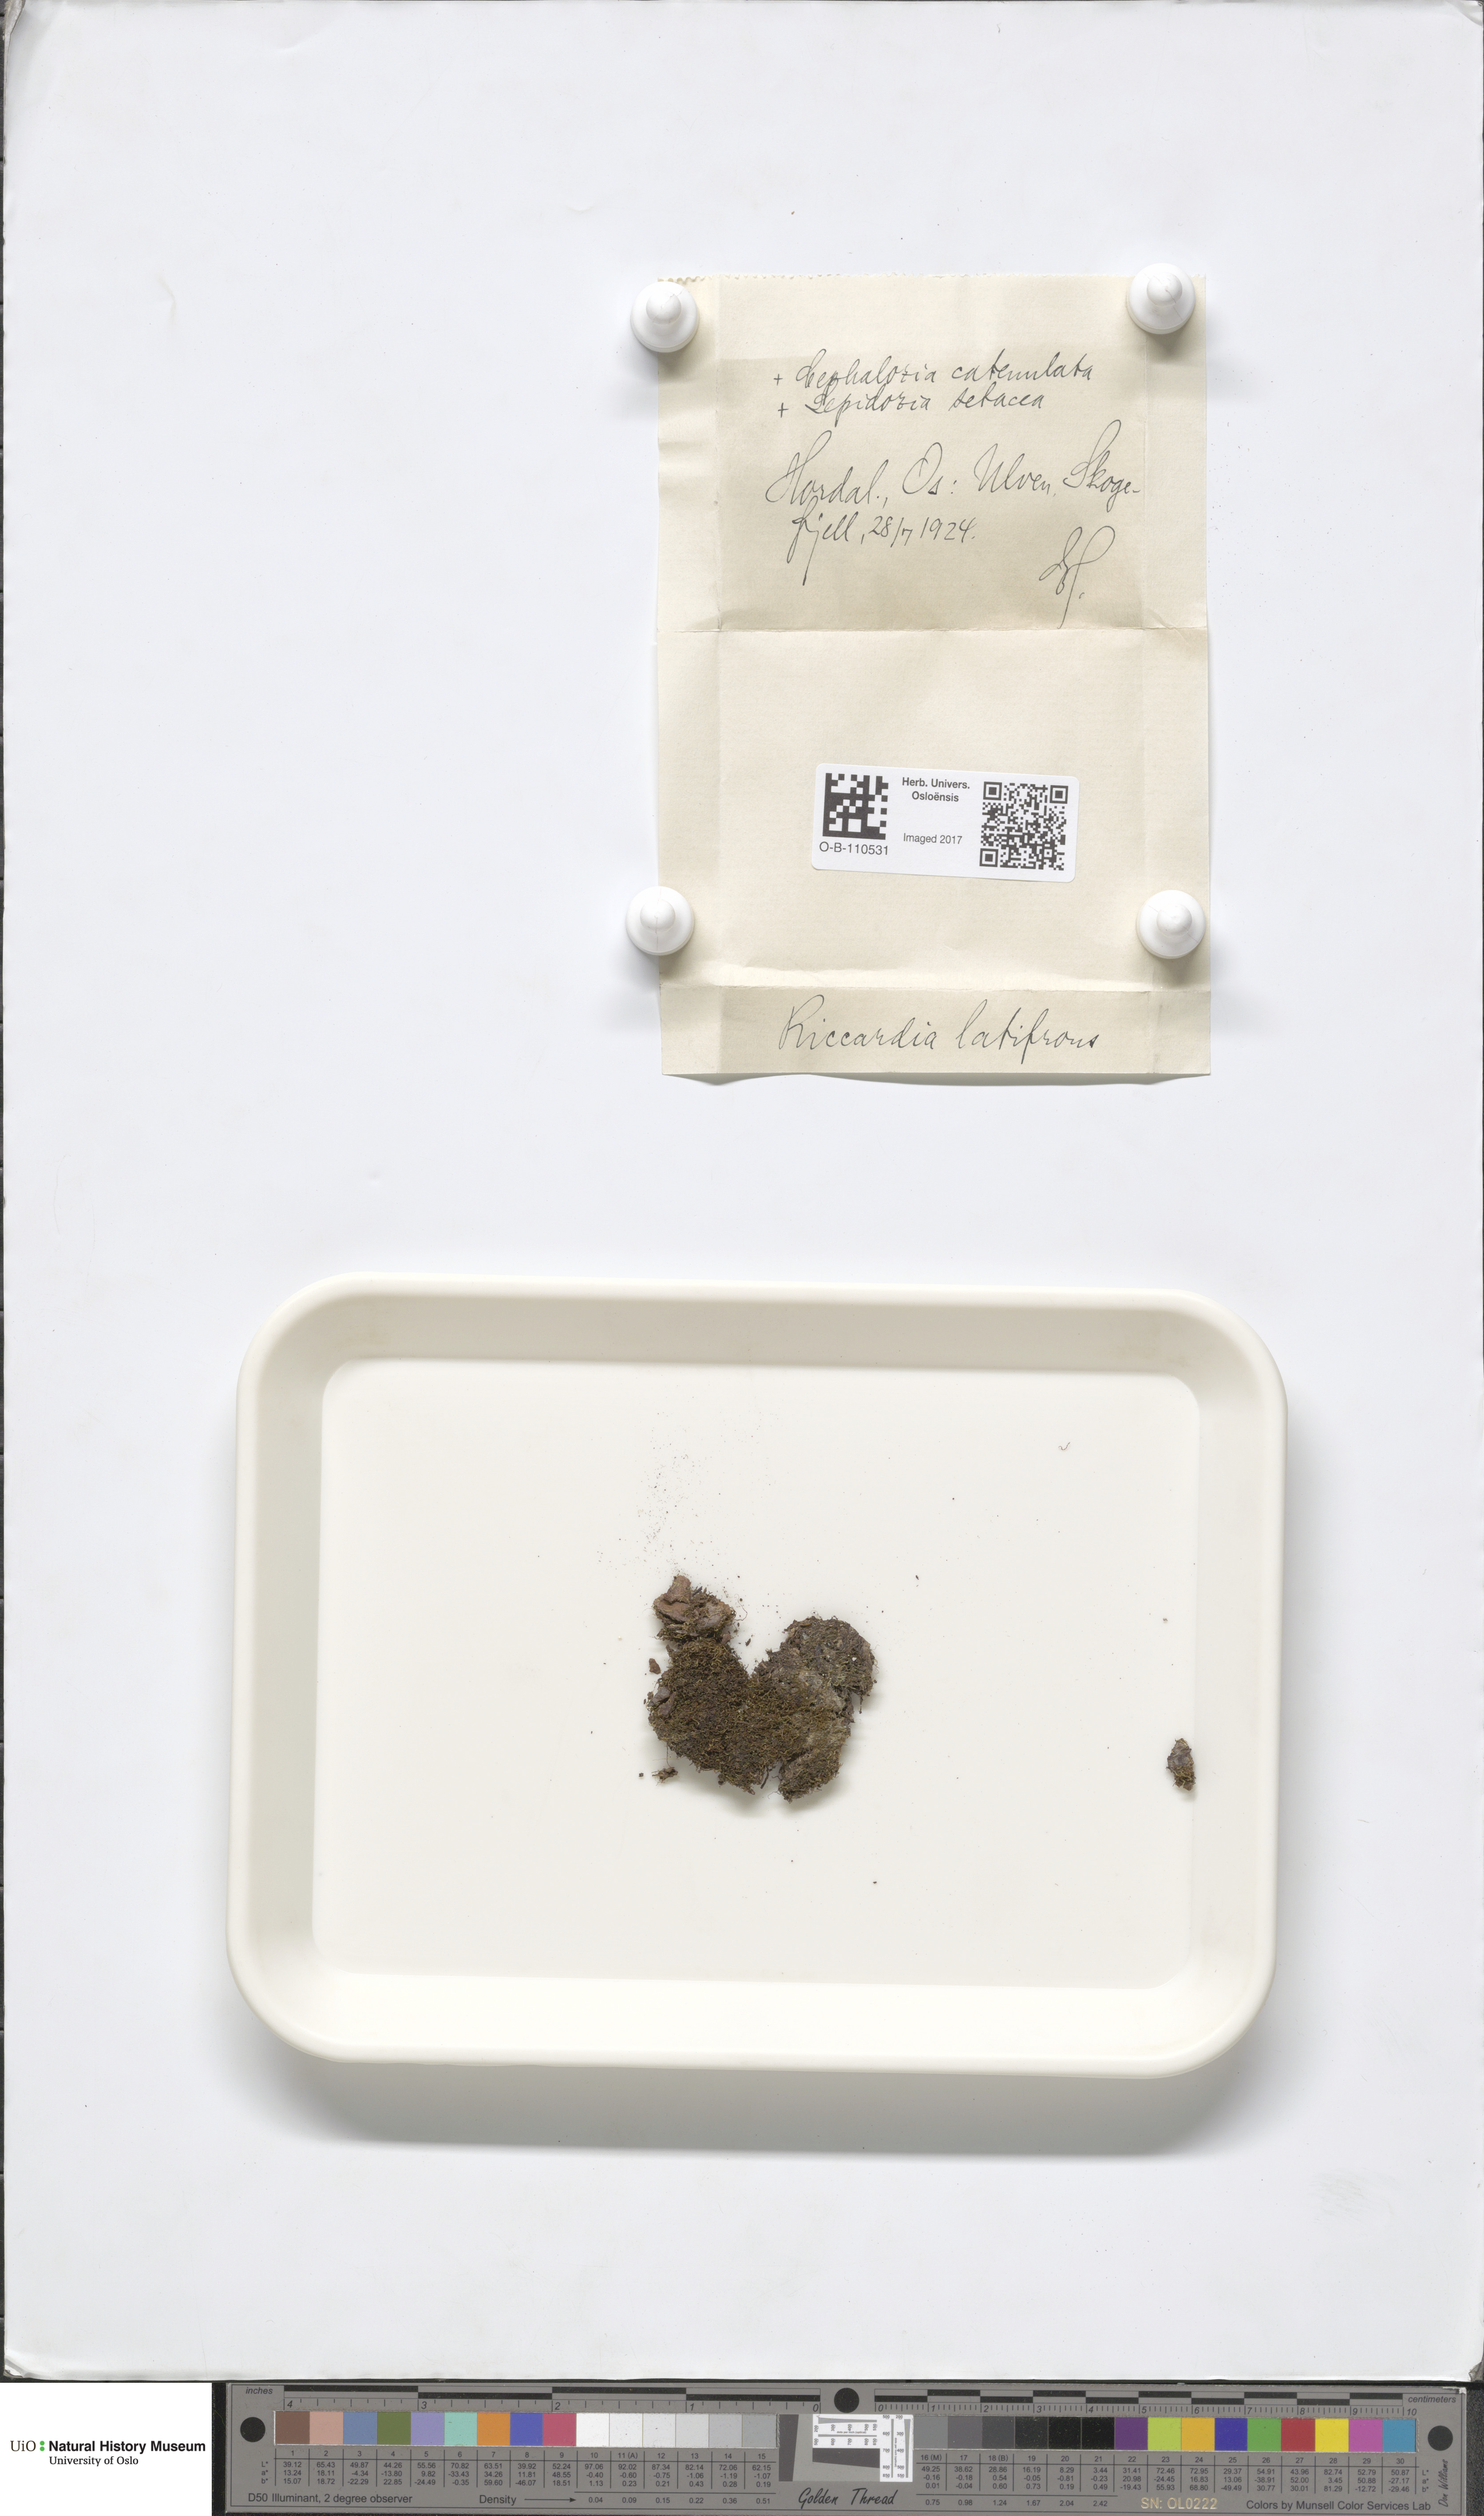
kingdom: Plantae
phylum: Marchantiophyta
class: Jungermanniopsida
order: Metzgeriales
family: Aneuraceae
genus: Riccardia
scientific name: Riccardia latifrons
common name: Bog germanderwort
